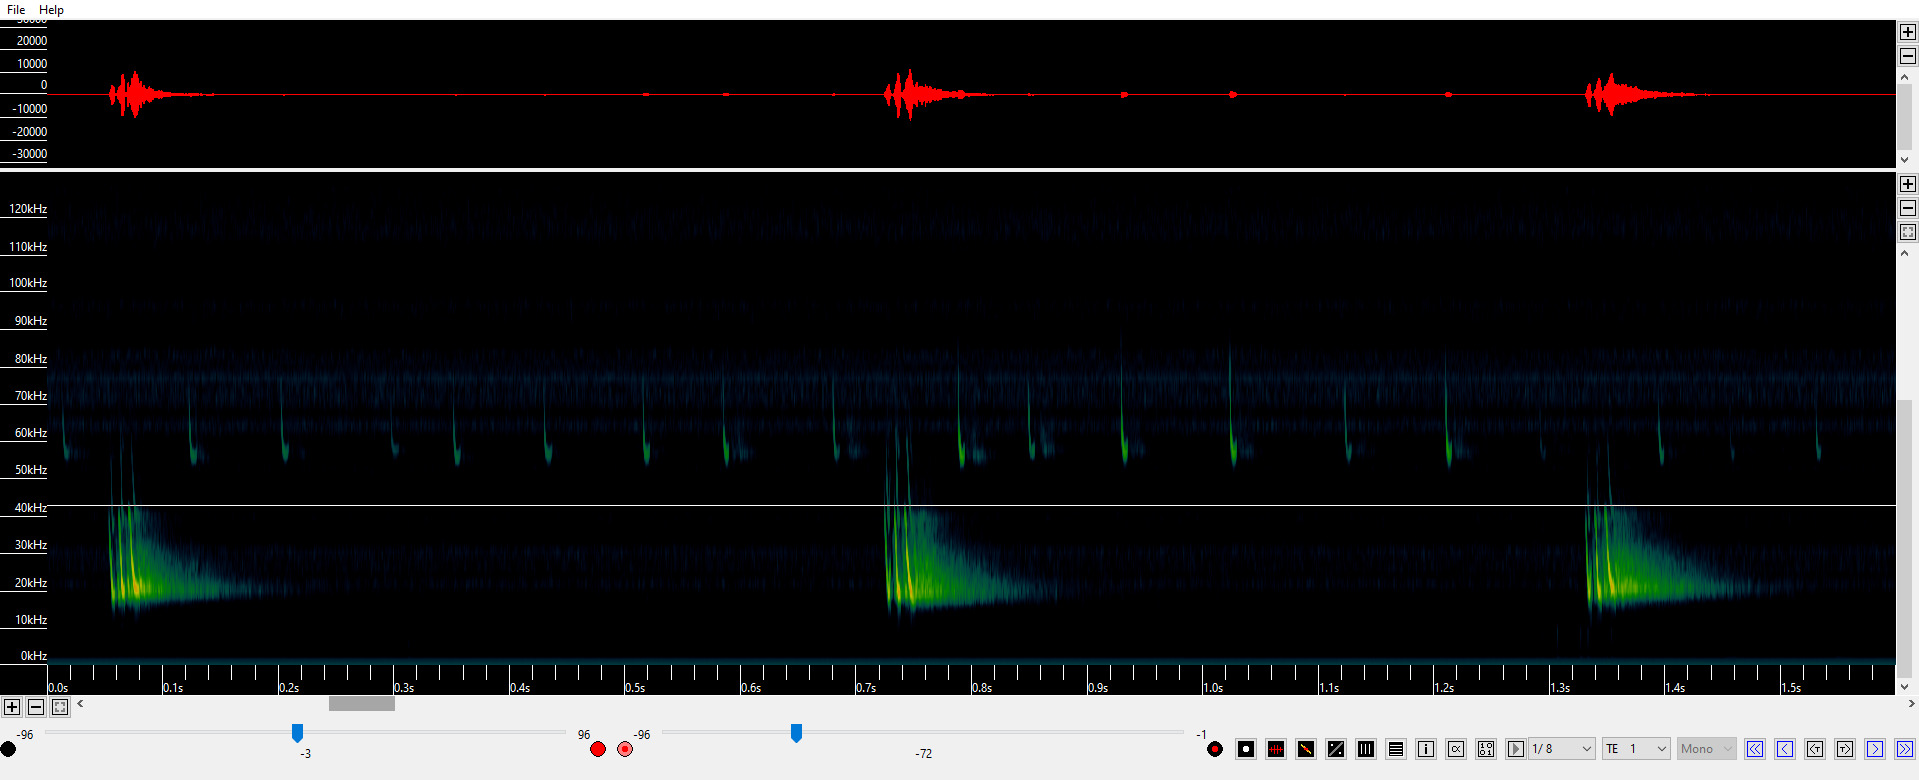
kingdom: Animalia
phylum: Chordata
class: Mammalia
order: Chiroptera
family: Vespertilionidae
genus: Pipistrellus
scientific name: Pipistrellus pygmaeus
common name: Dværgflagermus
